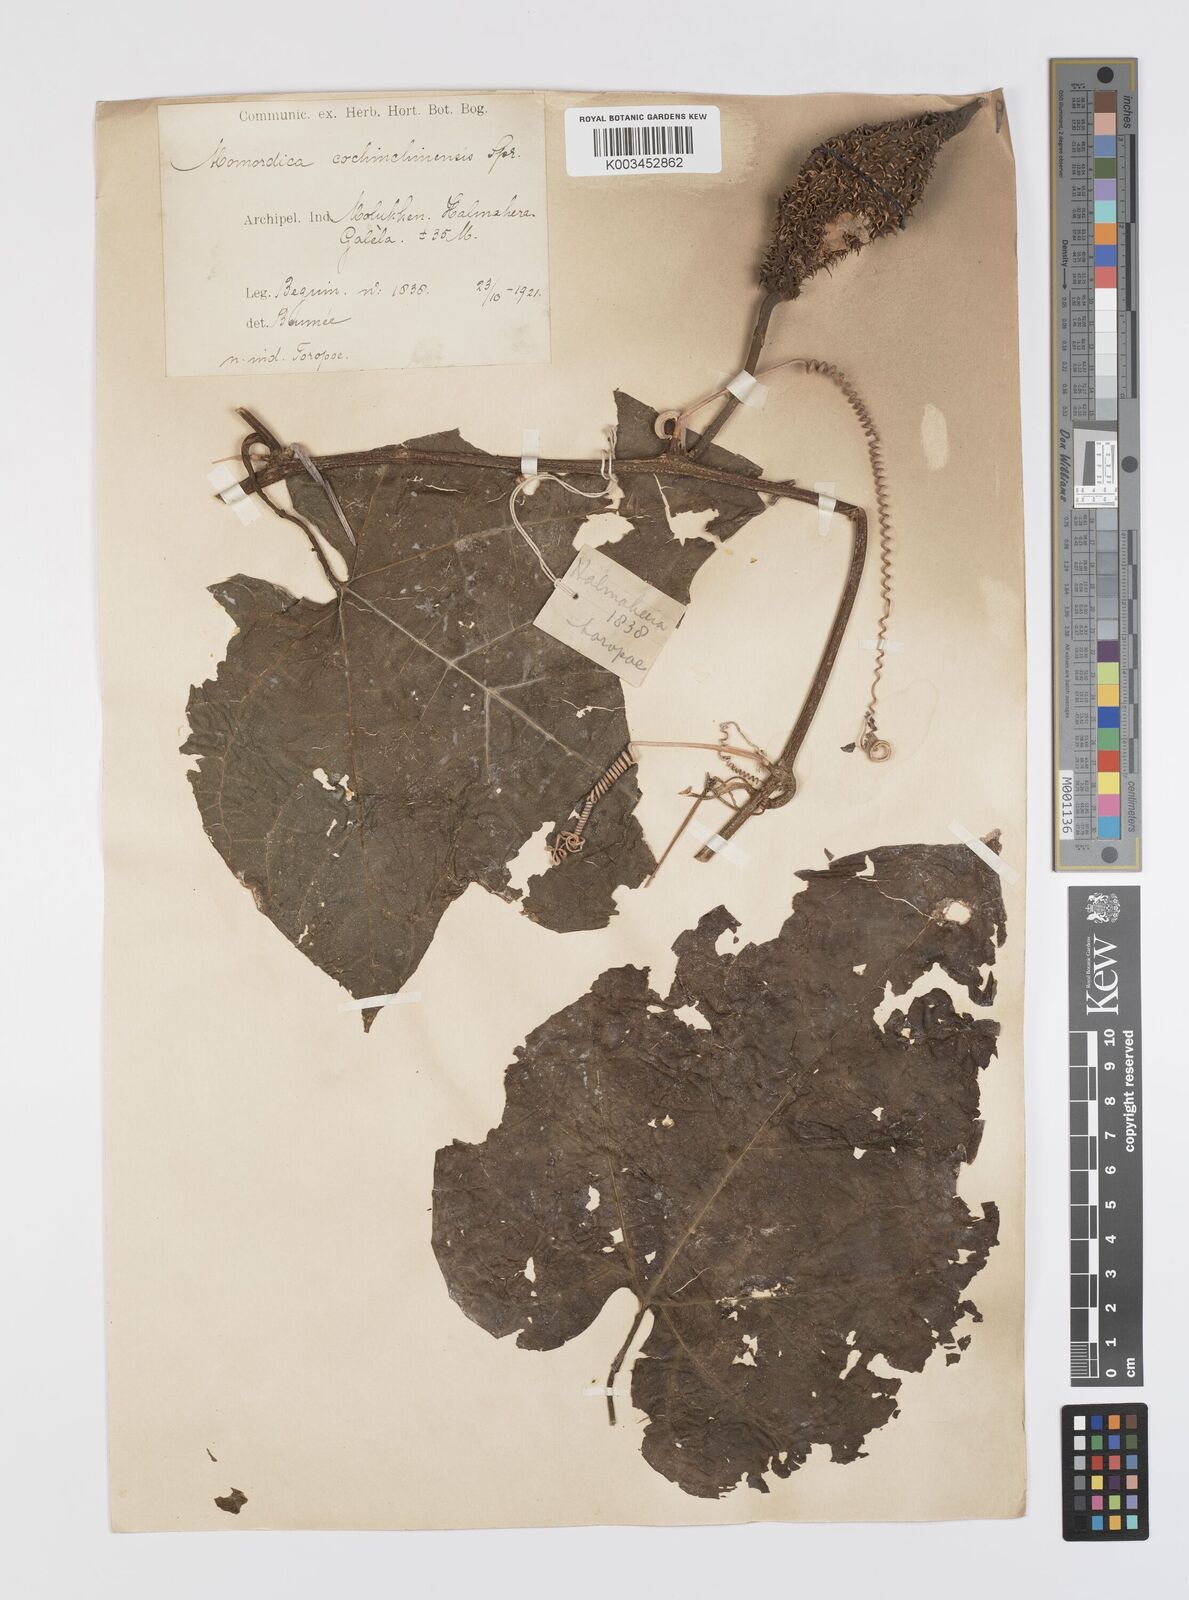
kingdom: Plantae
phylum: Tracheophyta
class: Magnoliopsida
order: Cucurbitales
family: Cucurbitaceae
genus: Momordica
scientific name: Momordica cochinchinensis
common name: Chinese bitter-cucumber
